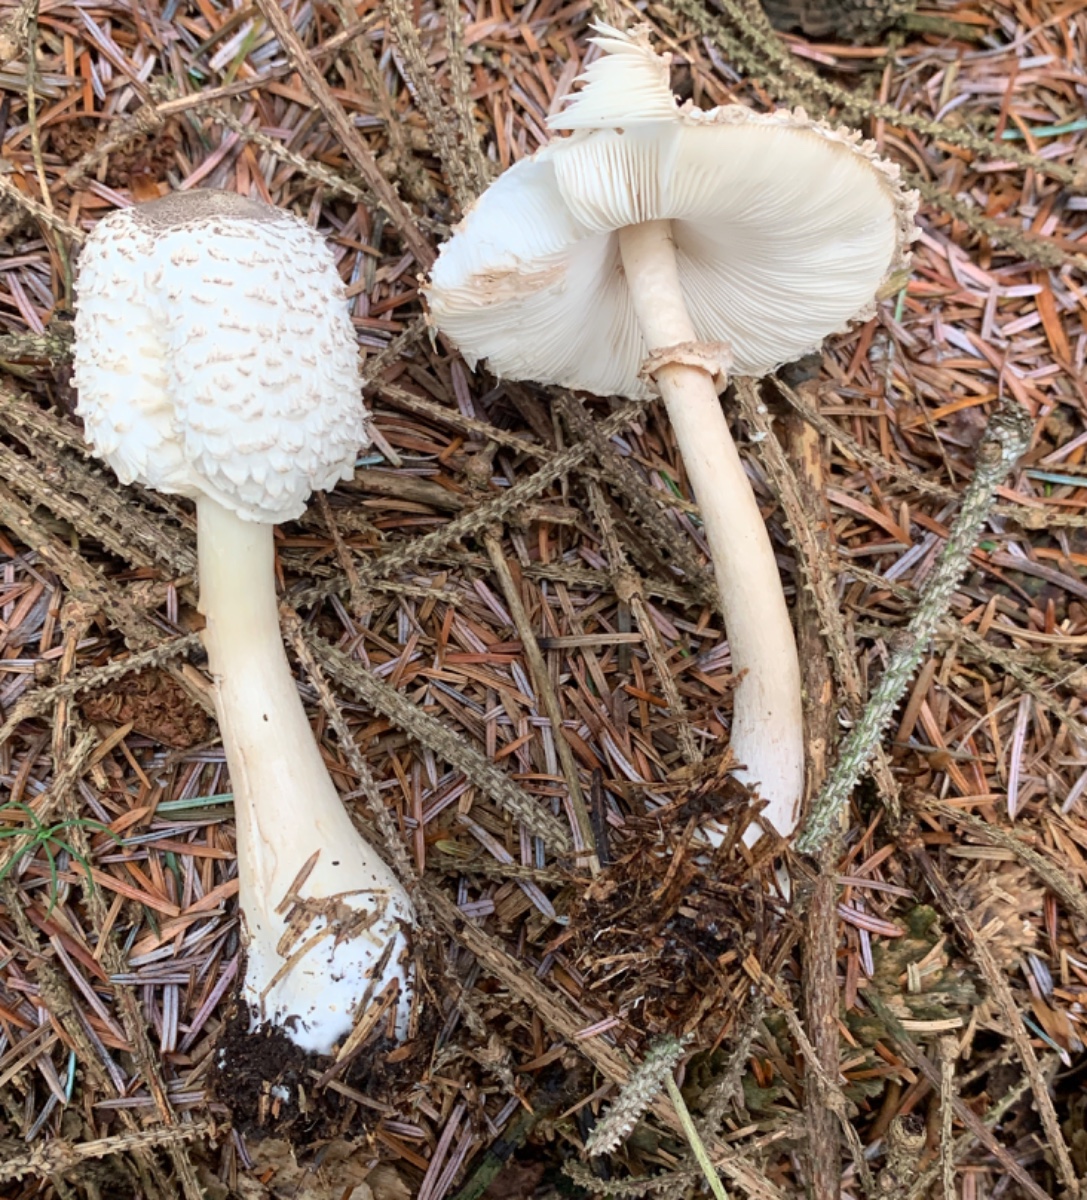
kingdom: Fungi
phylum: Basidiomycota
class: Agaricomycetes
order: Agaricales
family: Agaricaceae
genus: Leucoagaricus
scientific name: Leucoagaricus nympharum
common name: gran-silkehat
